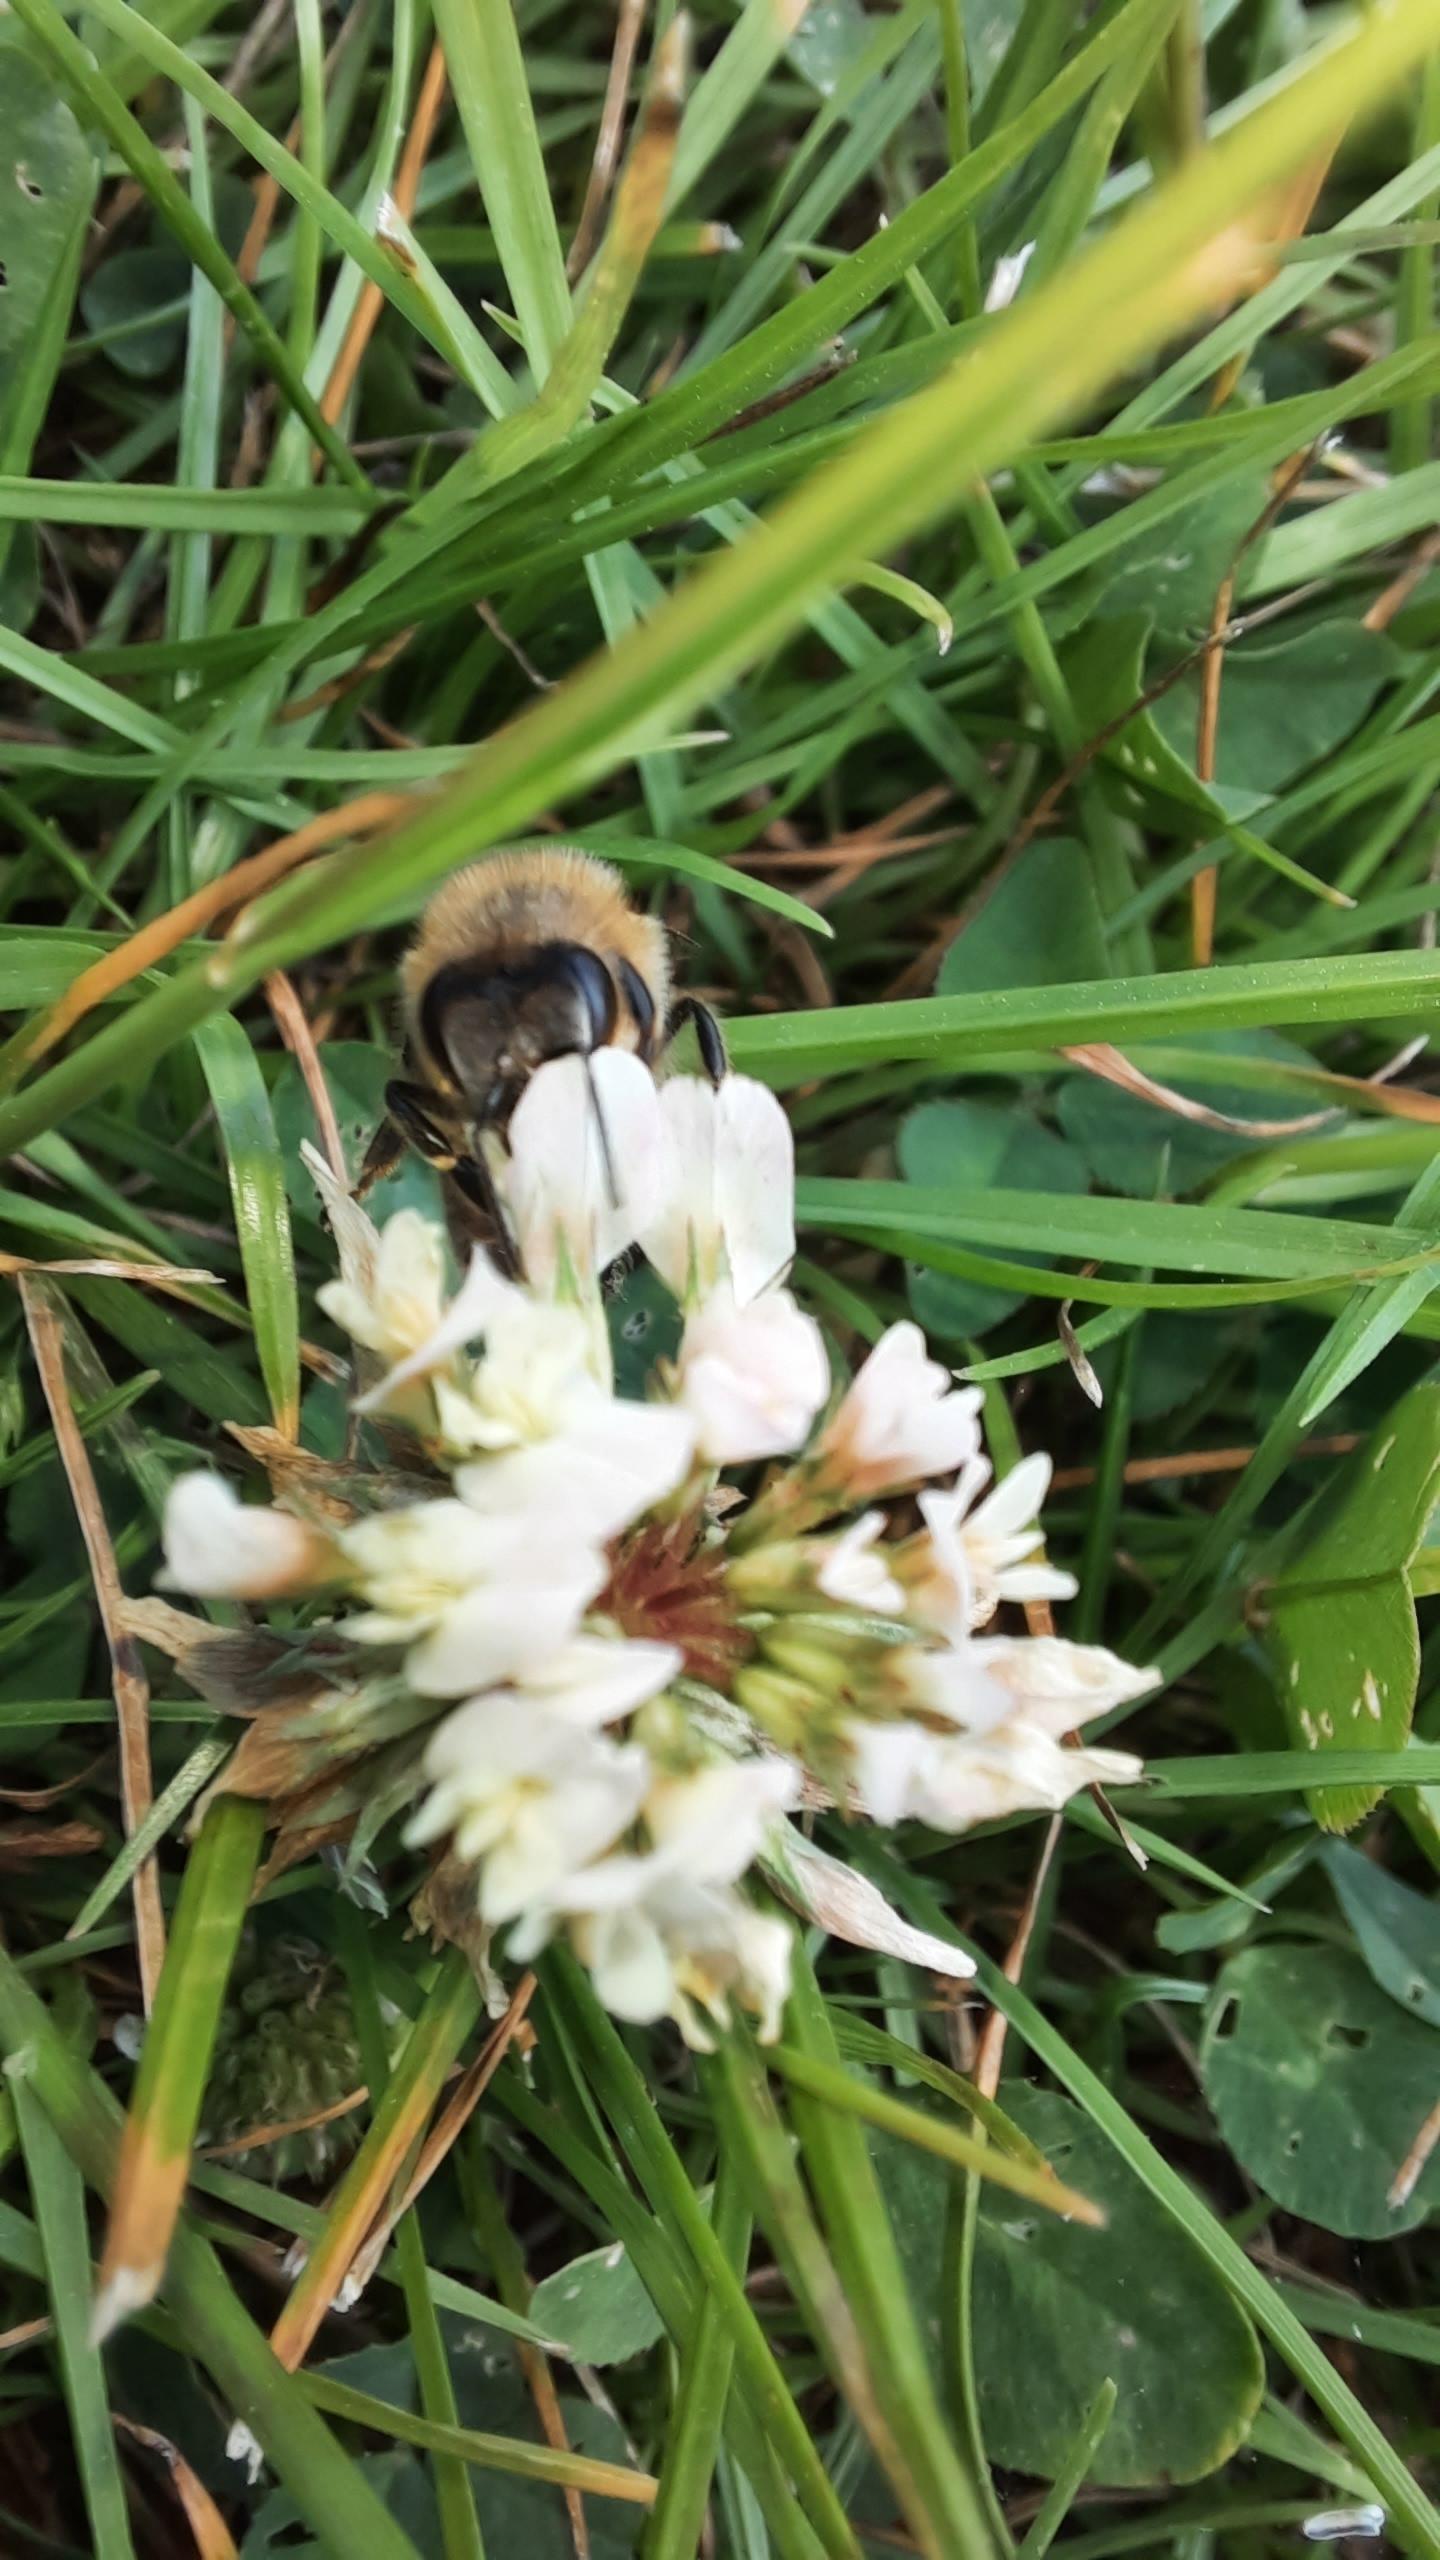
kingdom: Plantae
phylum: Tracheophyta
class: Magnoliopsida
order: Fabales
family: Fabaceae
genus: Trifolium
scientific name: Trifolium repens
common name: Hvid-kløver
